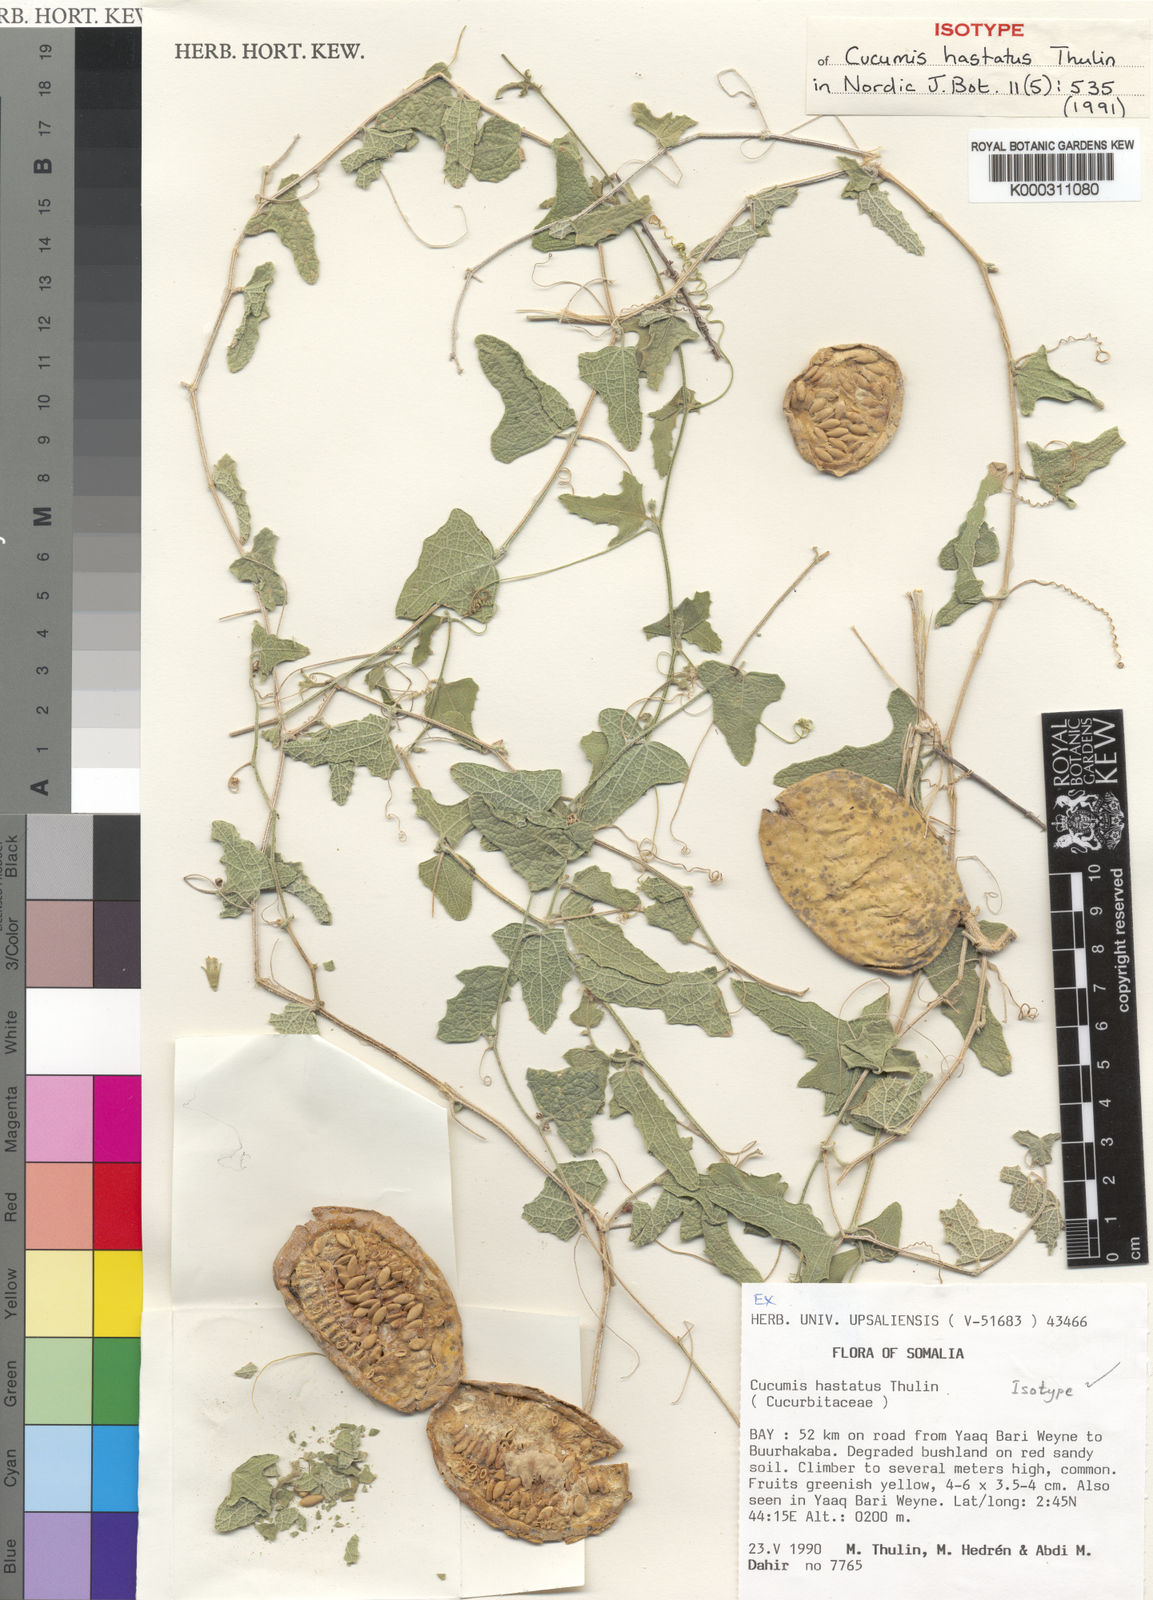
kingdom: Plantae
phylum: Tracheophyta
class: Magnoliopsida
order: Cucurbitales
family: Cucurbitaceae
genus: Cucumis
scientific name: Cucumis hastatus
